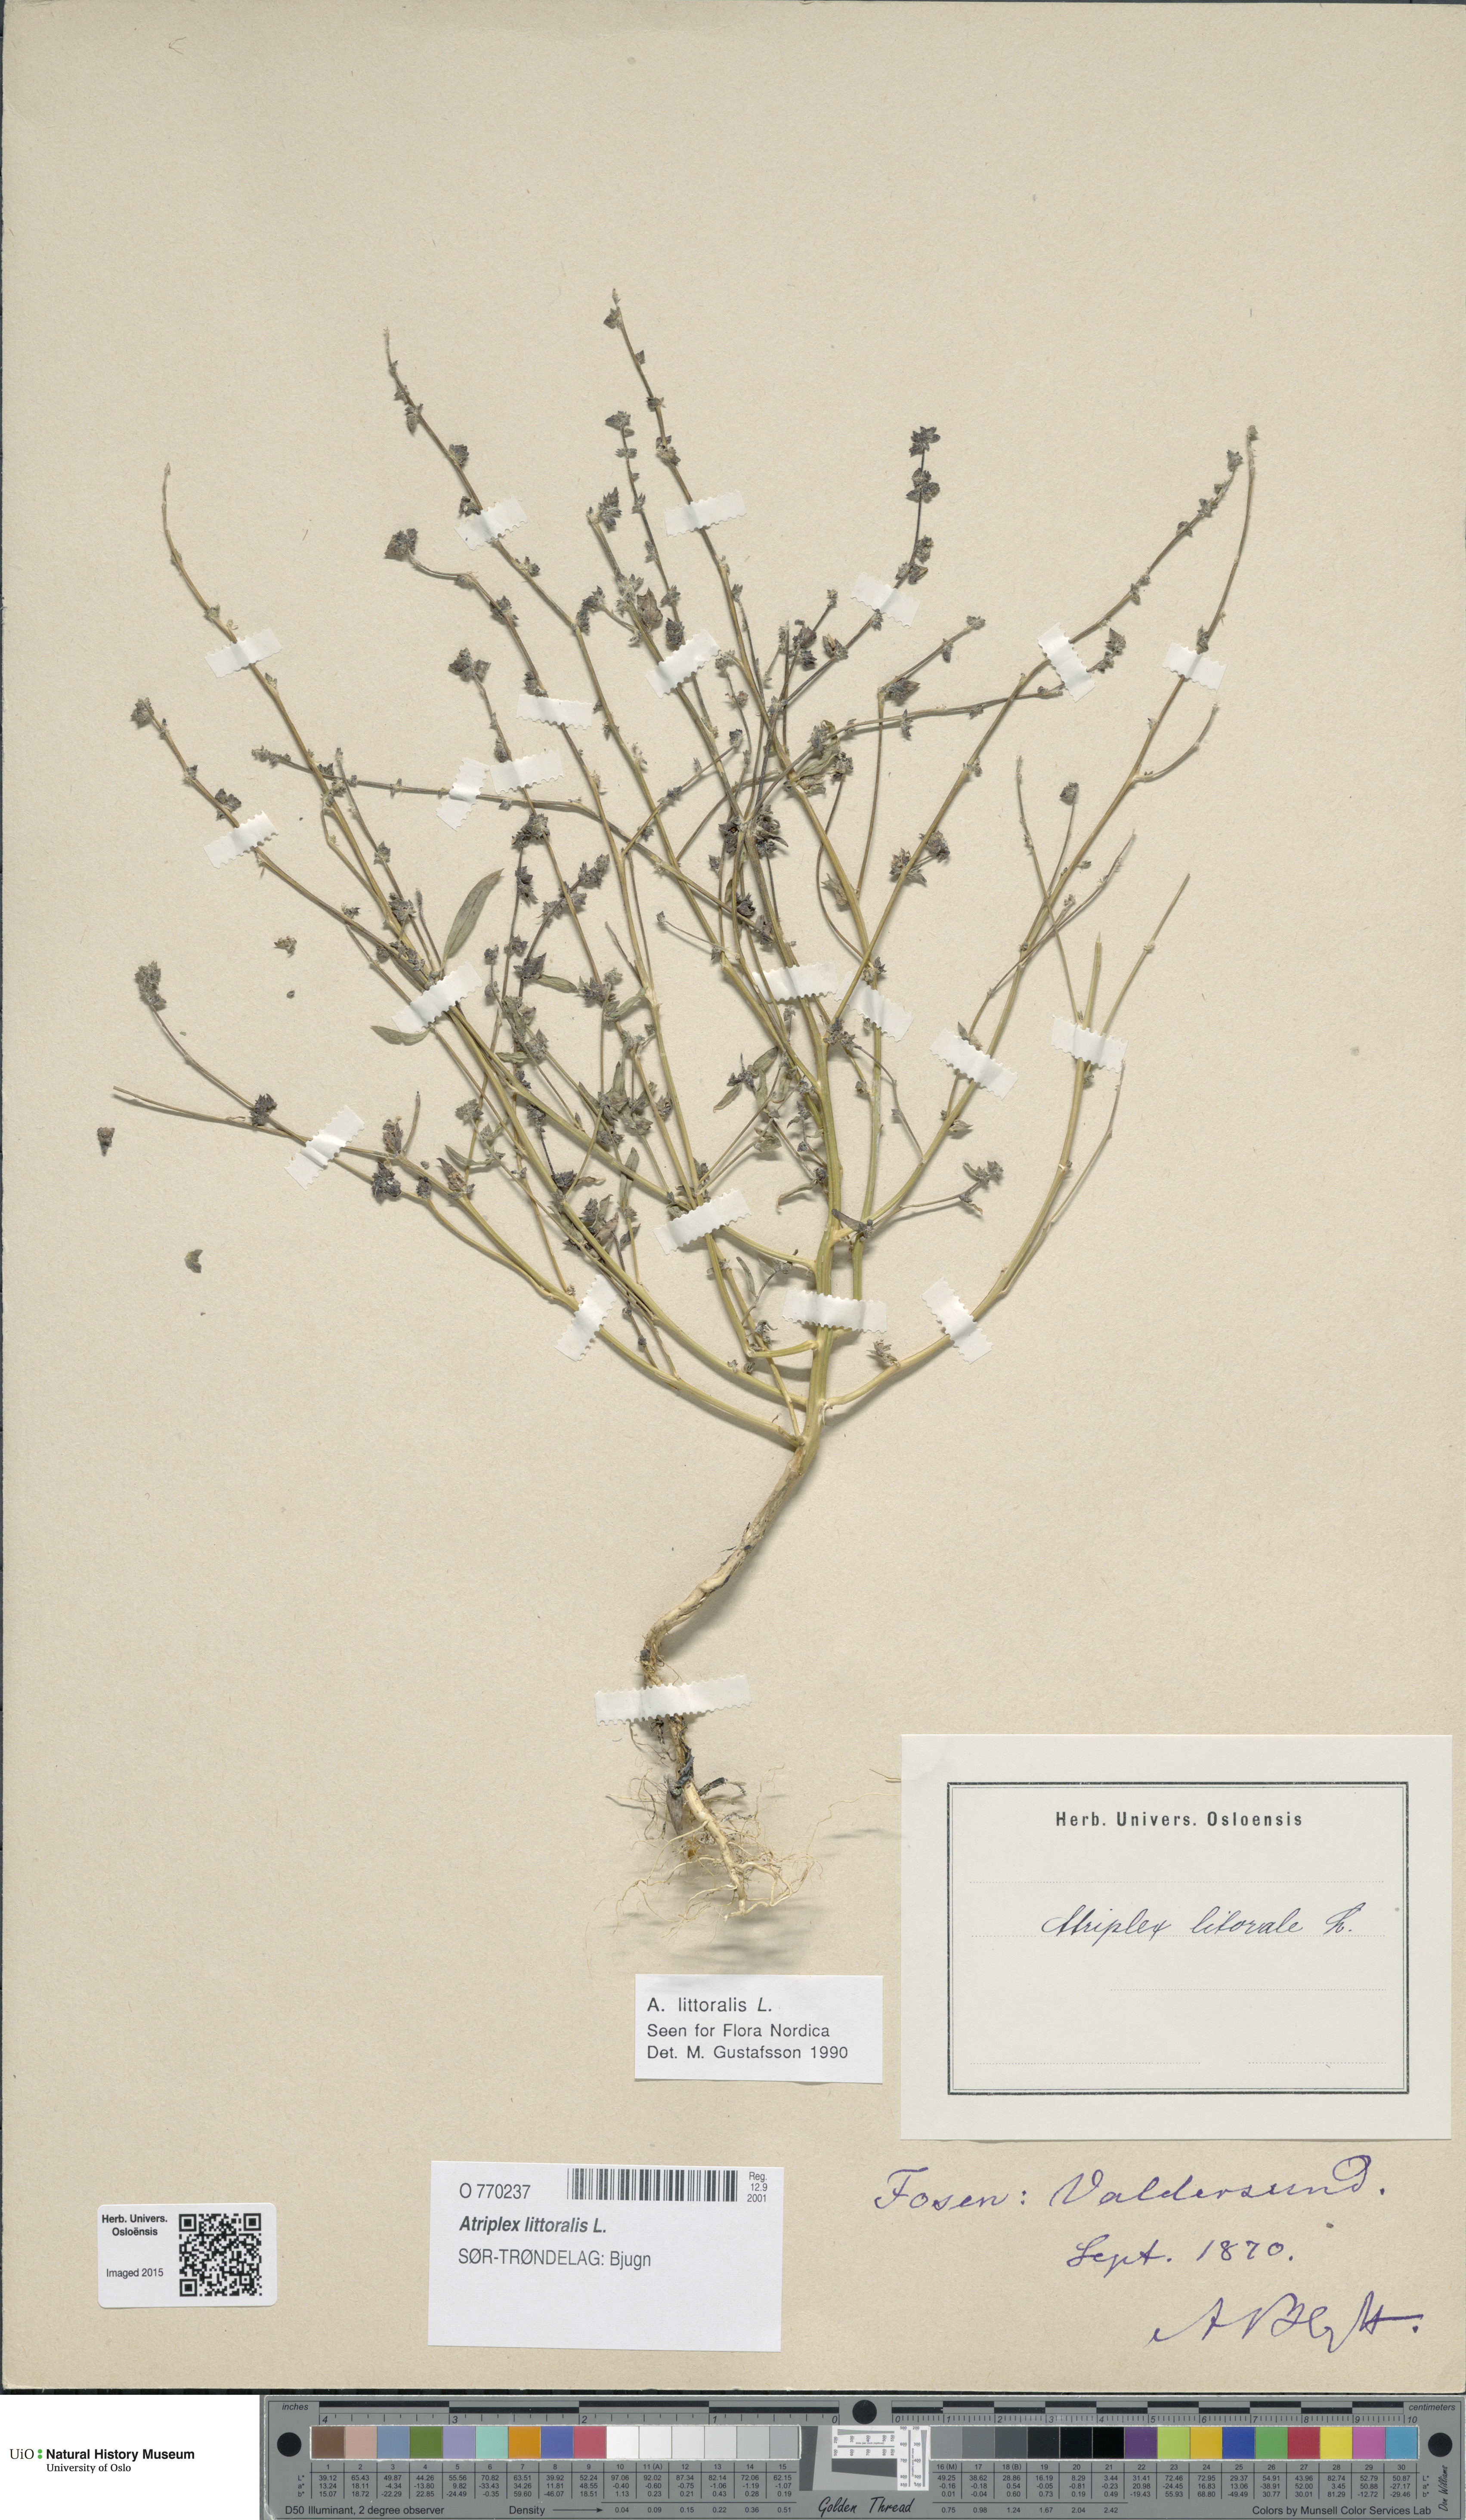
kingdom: Plantae
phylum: Tracheophyta
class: Magnoliopsida
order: Caryophyllales
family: Amaranthaceae
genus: Atriplex
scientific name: Atriplex littoralis
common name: Grass-leaved orache
